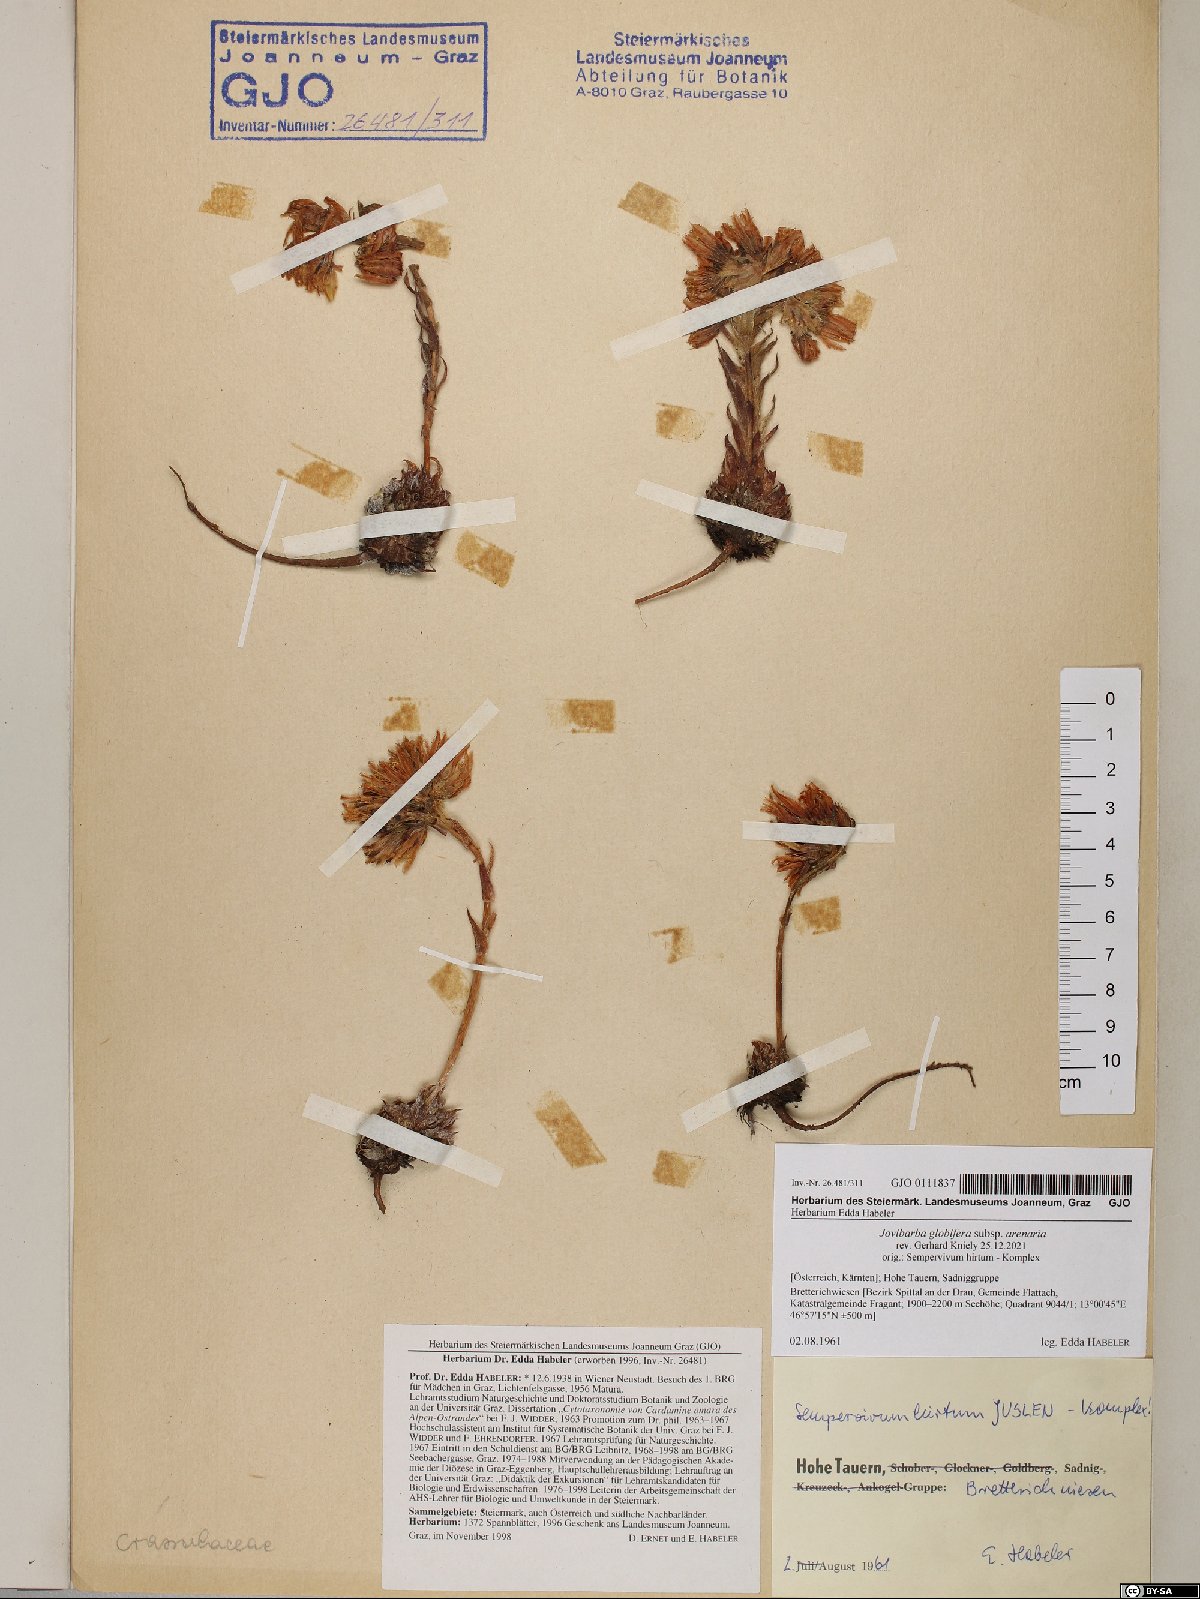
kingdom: Plantae
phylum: Tracheophyta
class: Magnoliopsida
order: Saxifragales
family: Crassulaceae
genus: Sempervivum
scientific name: Sempervivum globiferum
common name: Rolling hen-and-chicks
